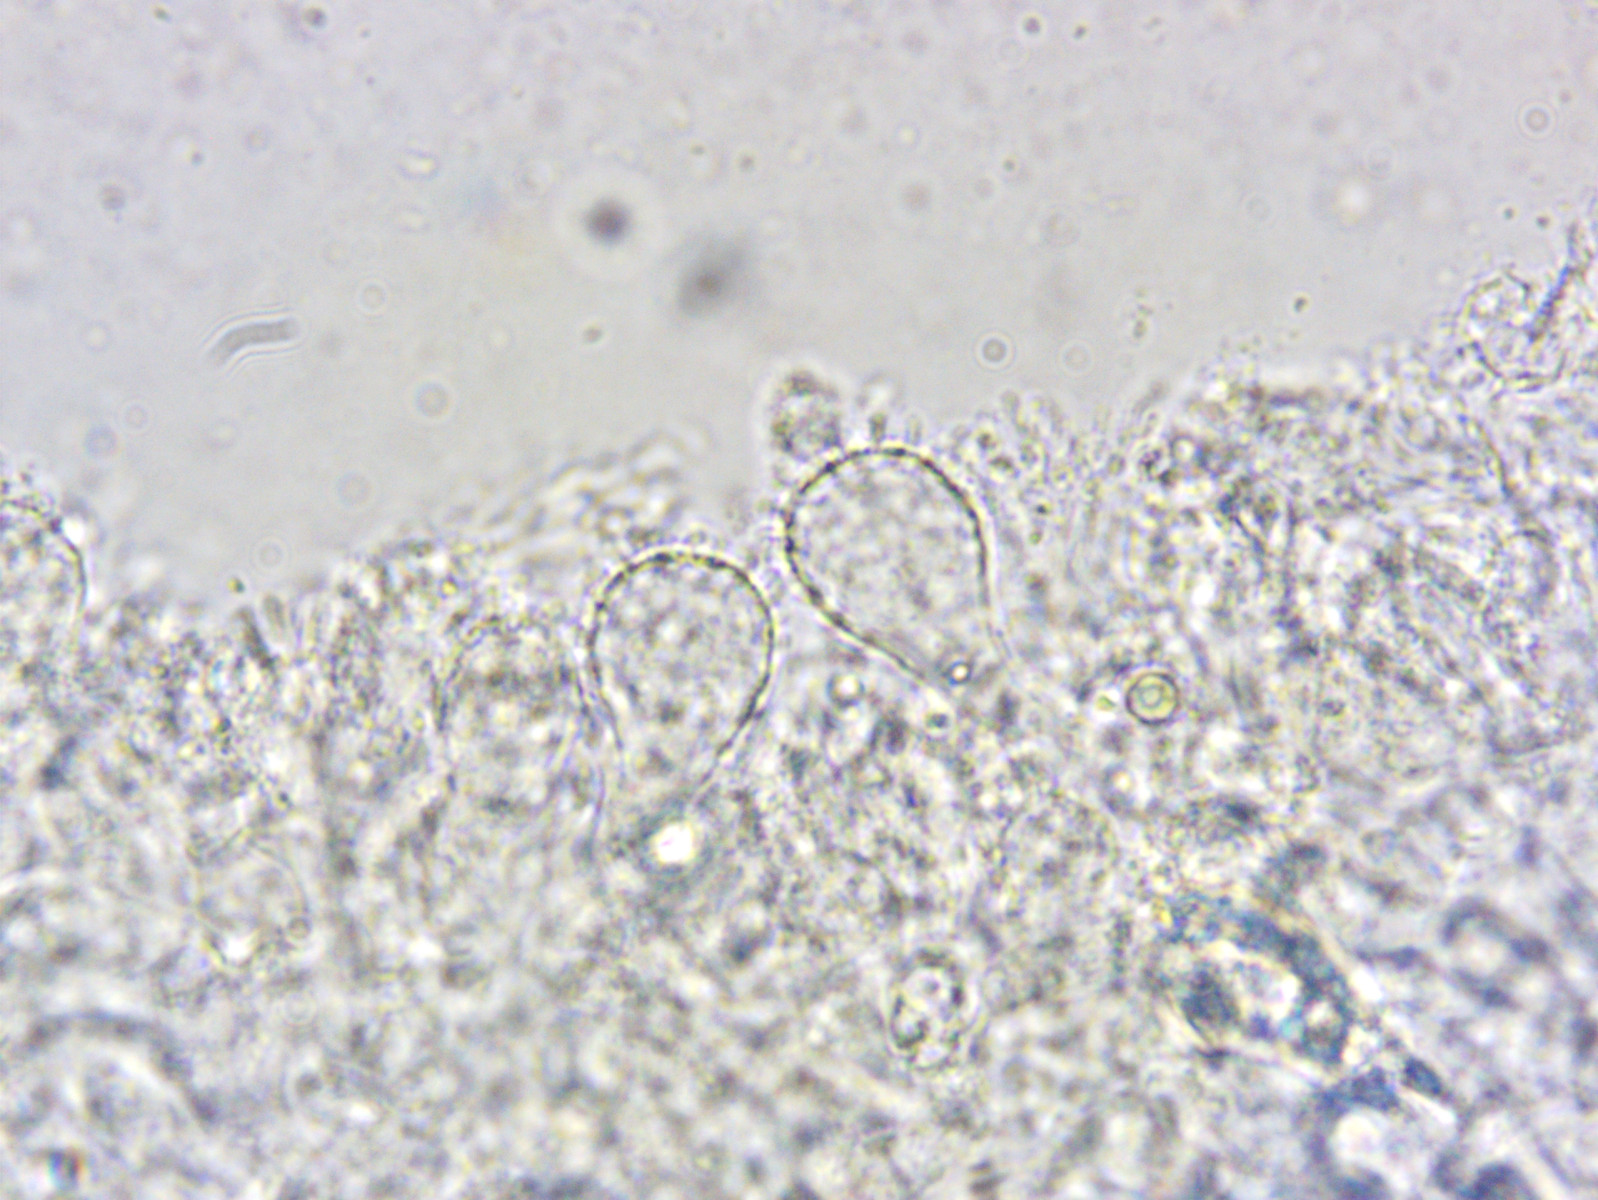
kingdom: Fungi
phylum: Basidiomycota
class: Agaricomycetes
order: Agaricales
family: Mycenaceae
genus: Mycena
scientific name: Mycena chlorantha
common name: klit-huesvamp
